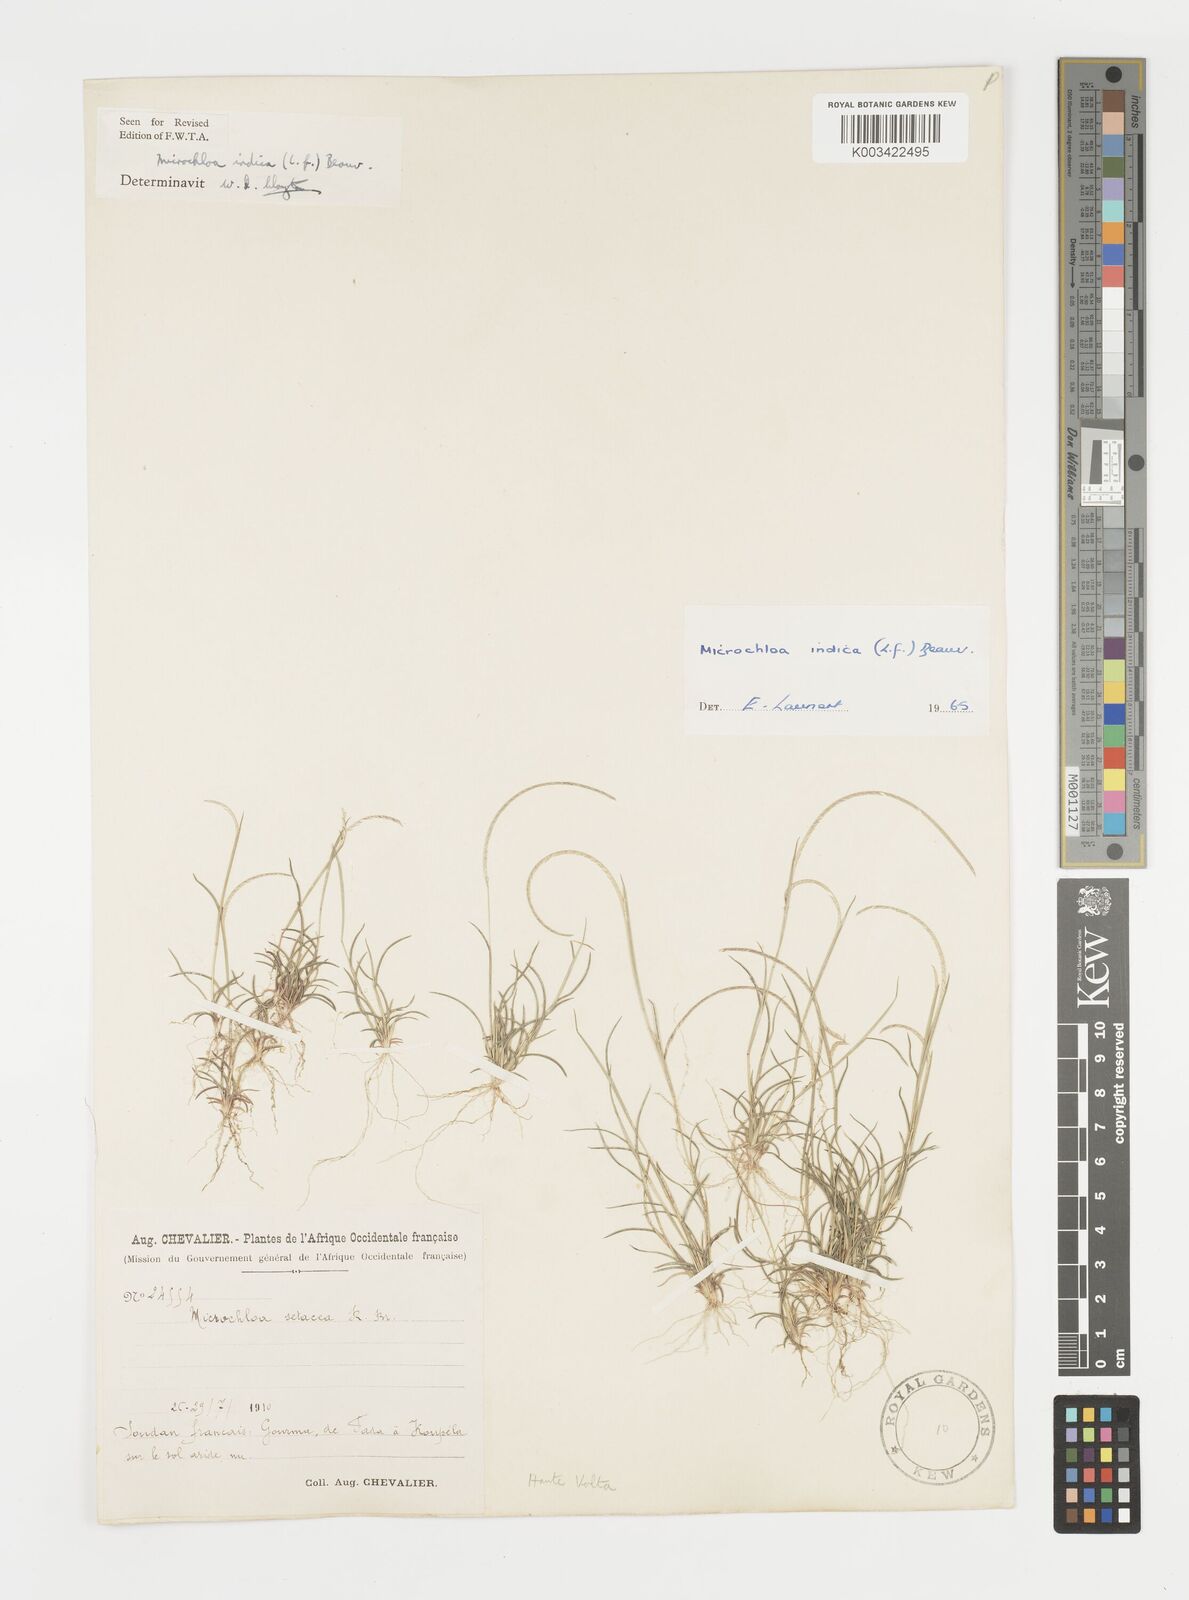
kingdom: Plantae
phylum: Tracheophyta
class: Liliopsida
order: Poales
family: Poaceae
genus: Microchloa
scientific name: Microchloa indica
